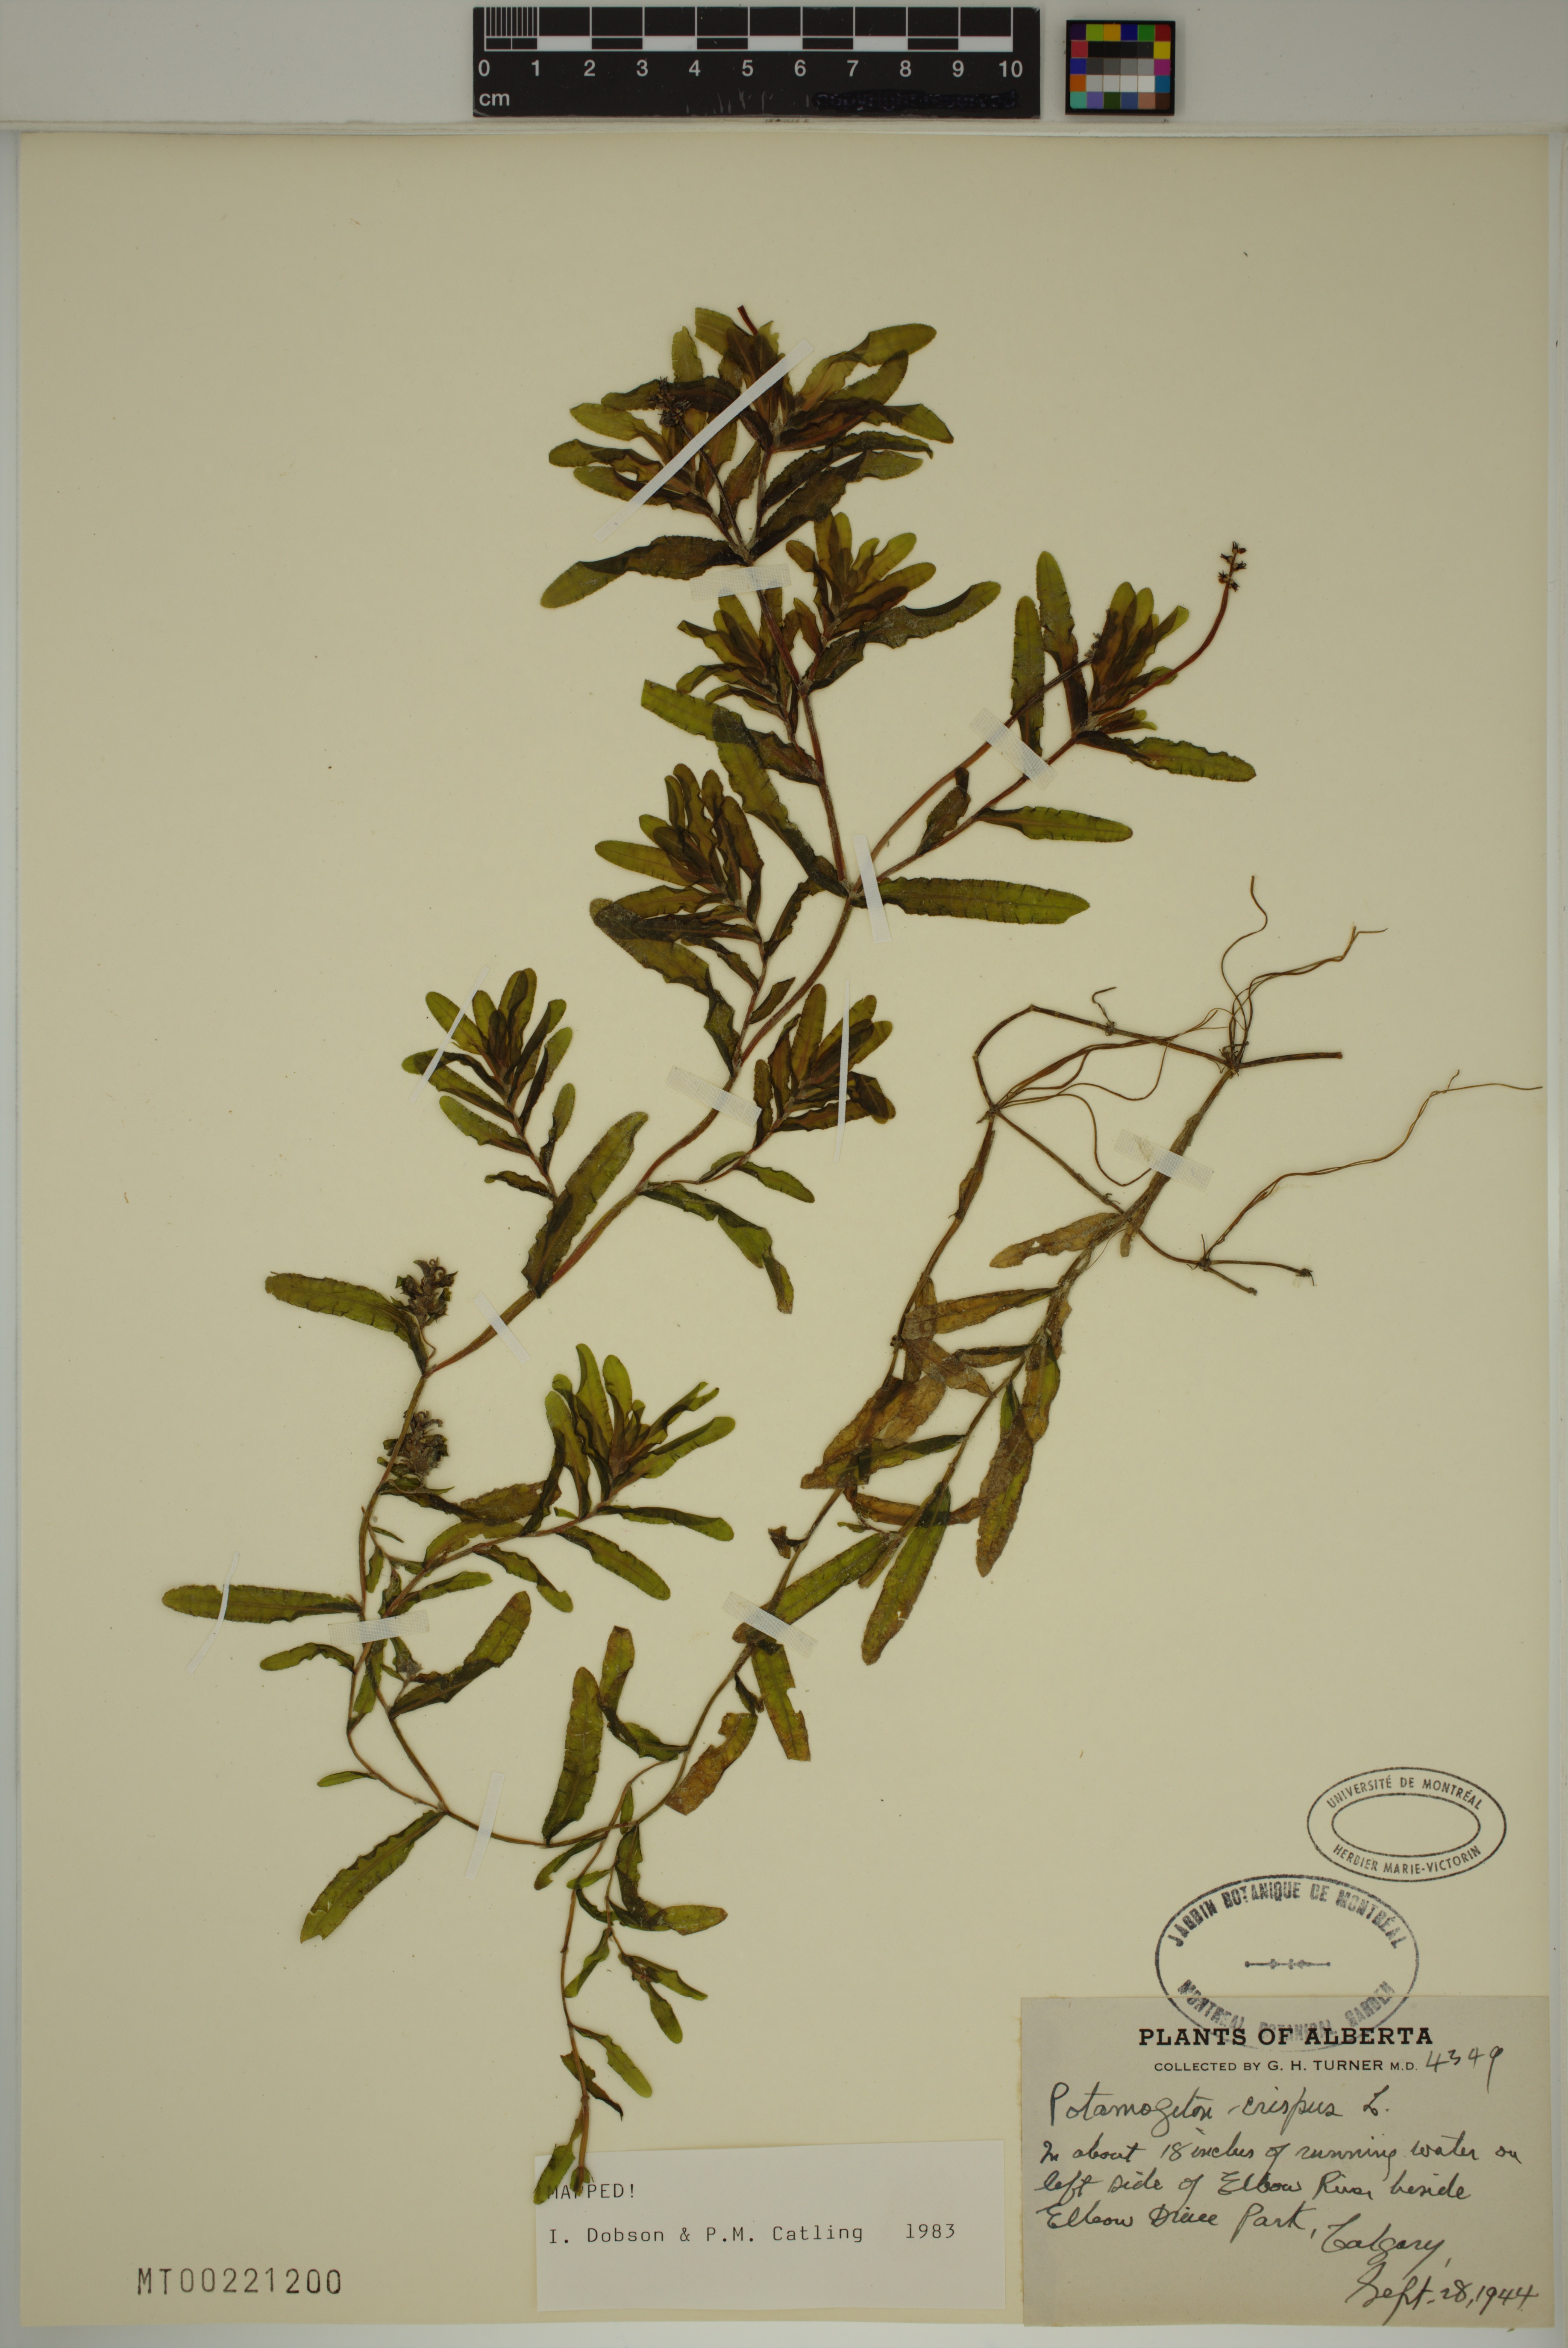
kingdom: Plantae
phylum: Tracheophyta
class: Liliopsida
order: Alismatales
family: Potamogetonaceae
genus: Potamogeton
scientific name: Potamogeton crispus
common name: Curled pondweed
